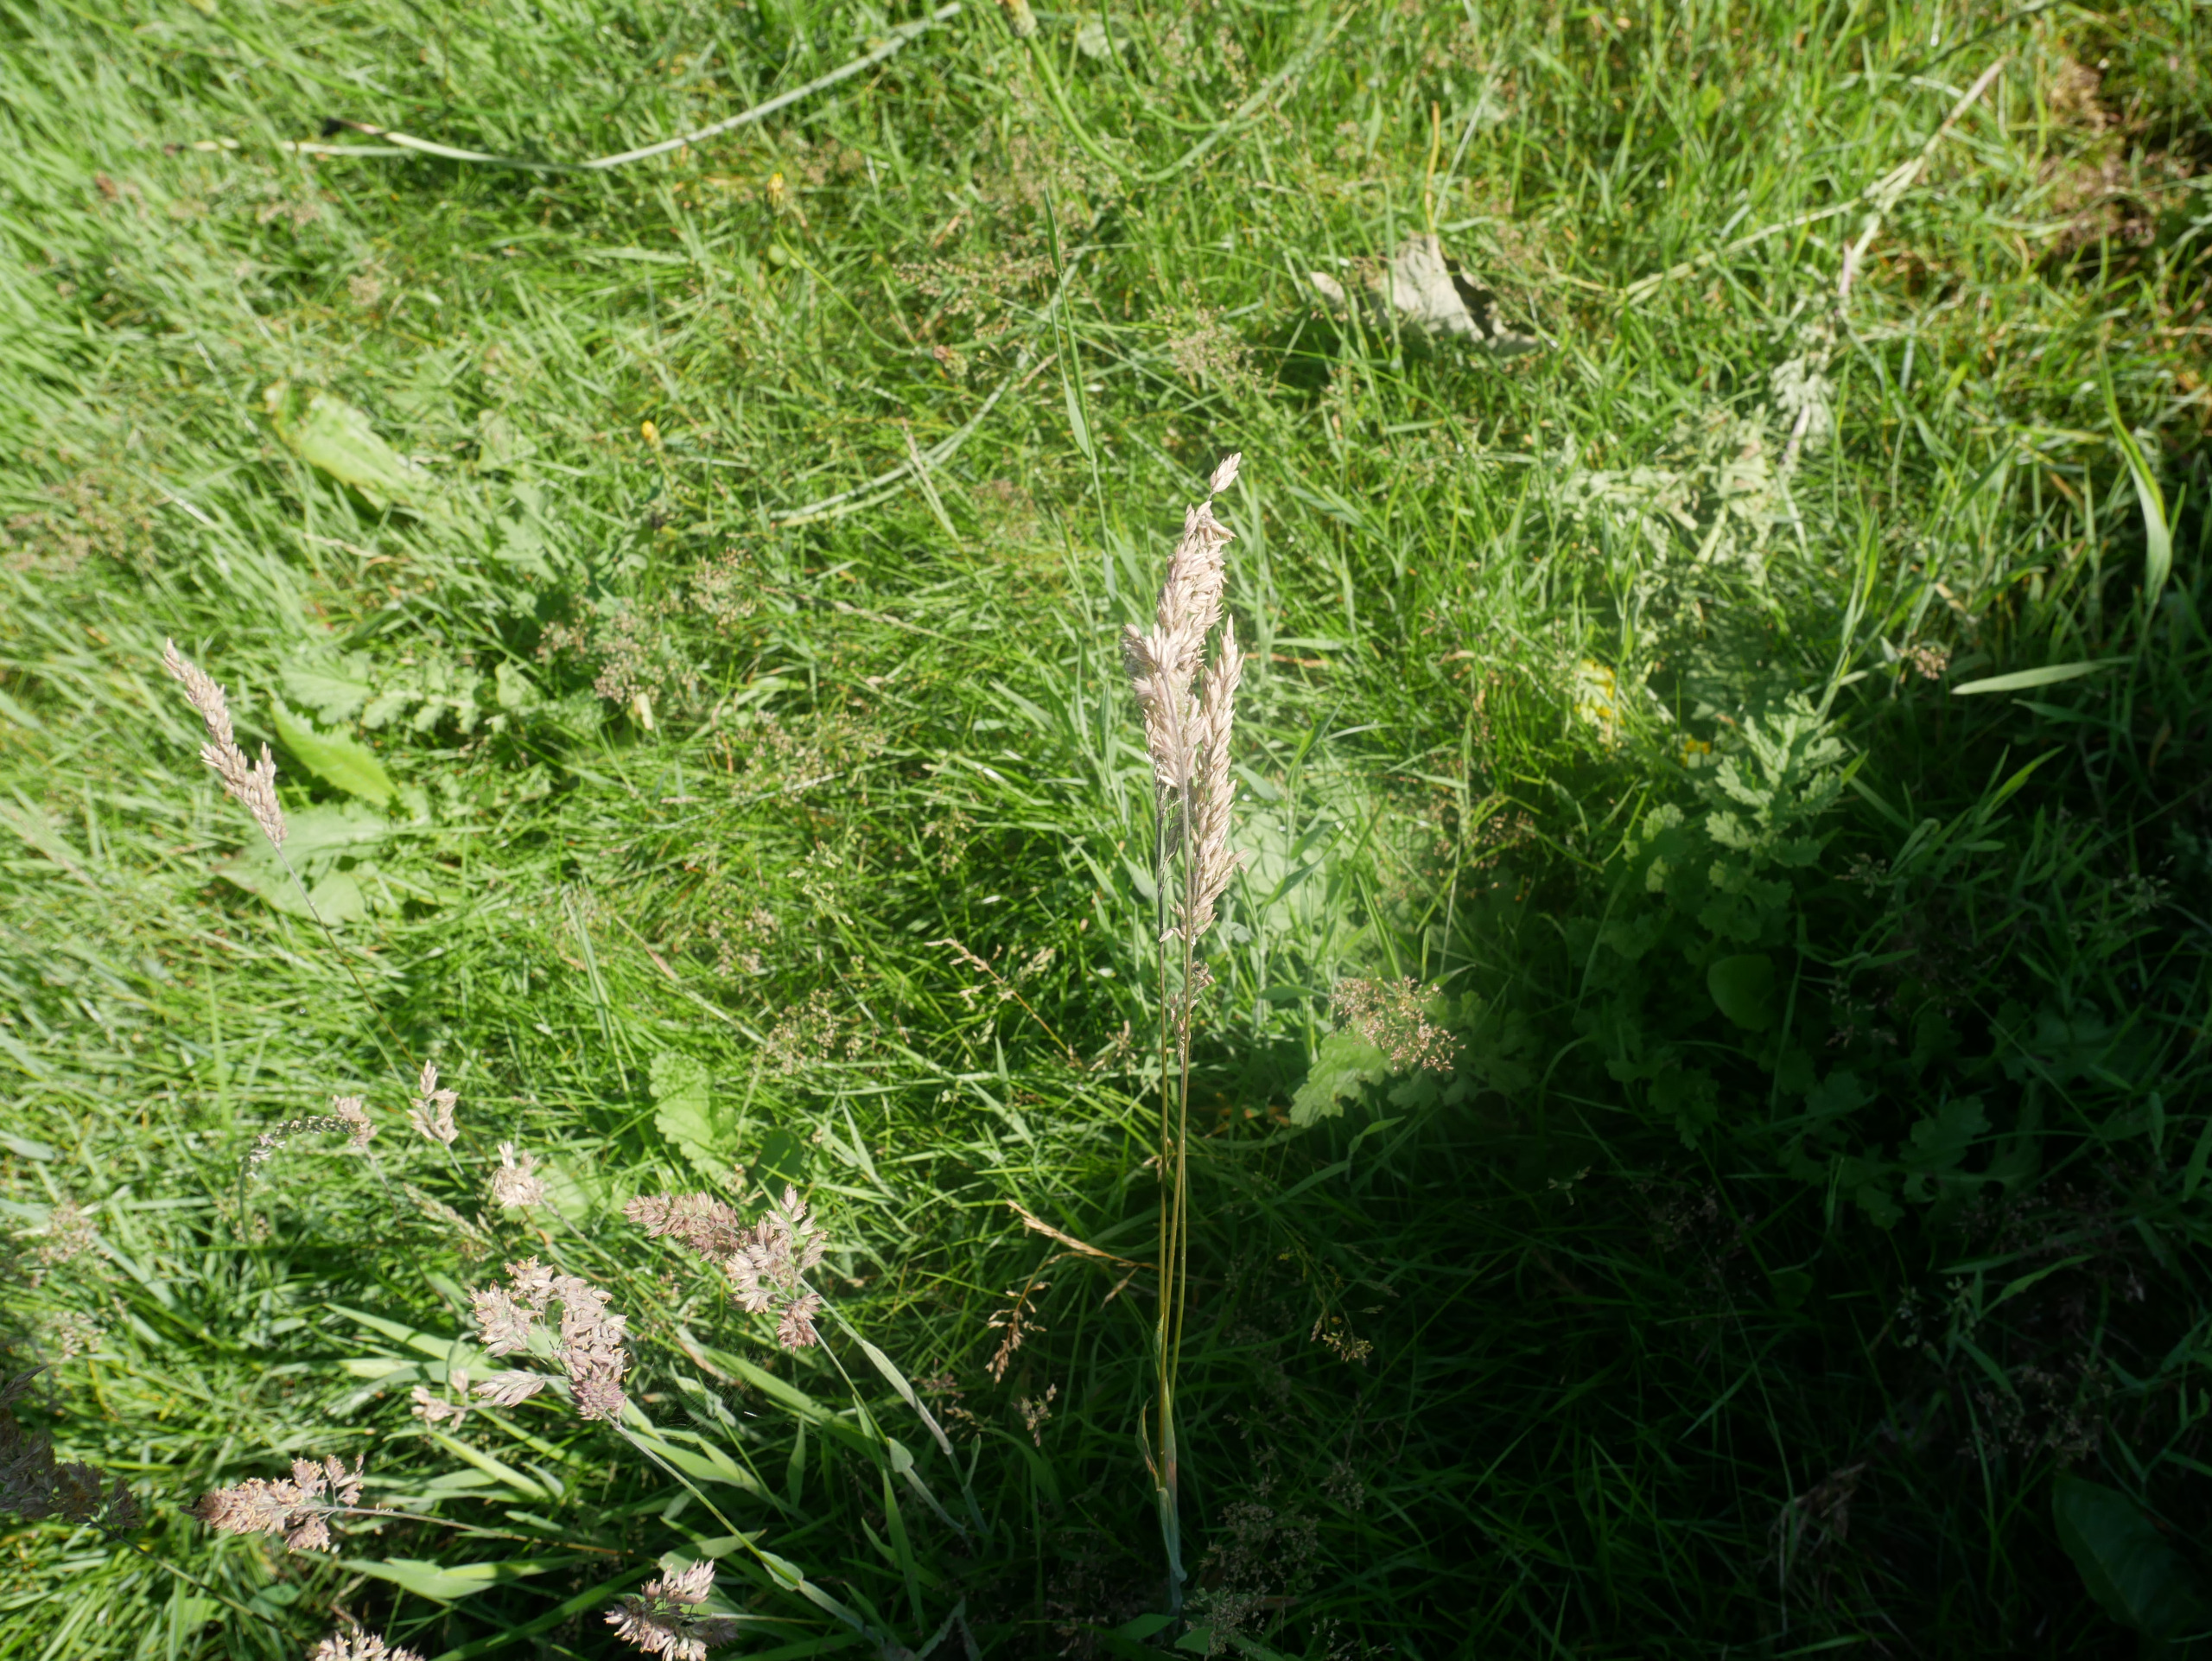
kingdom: Plantae
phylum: Tracheophyta
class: Liliopsida
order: Poales
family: Poaceae
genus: Holcus
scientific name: Holcus lanatus
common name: Fløjlsgræs
